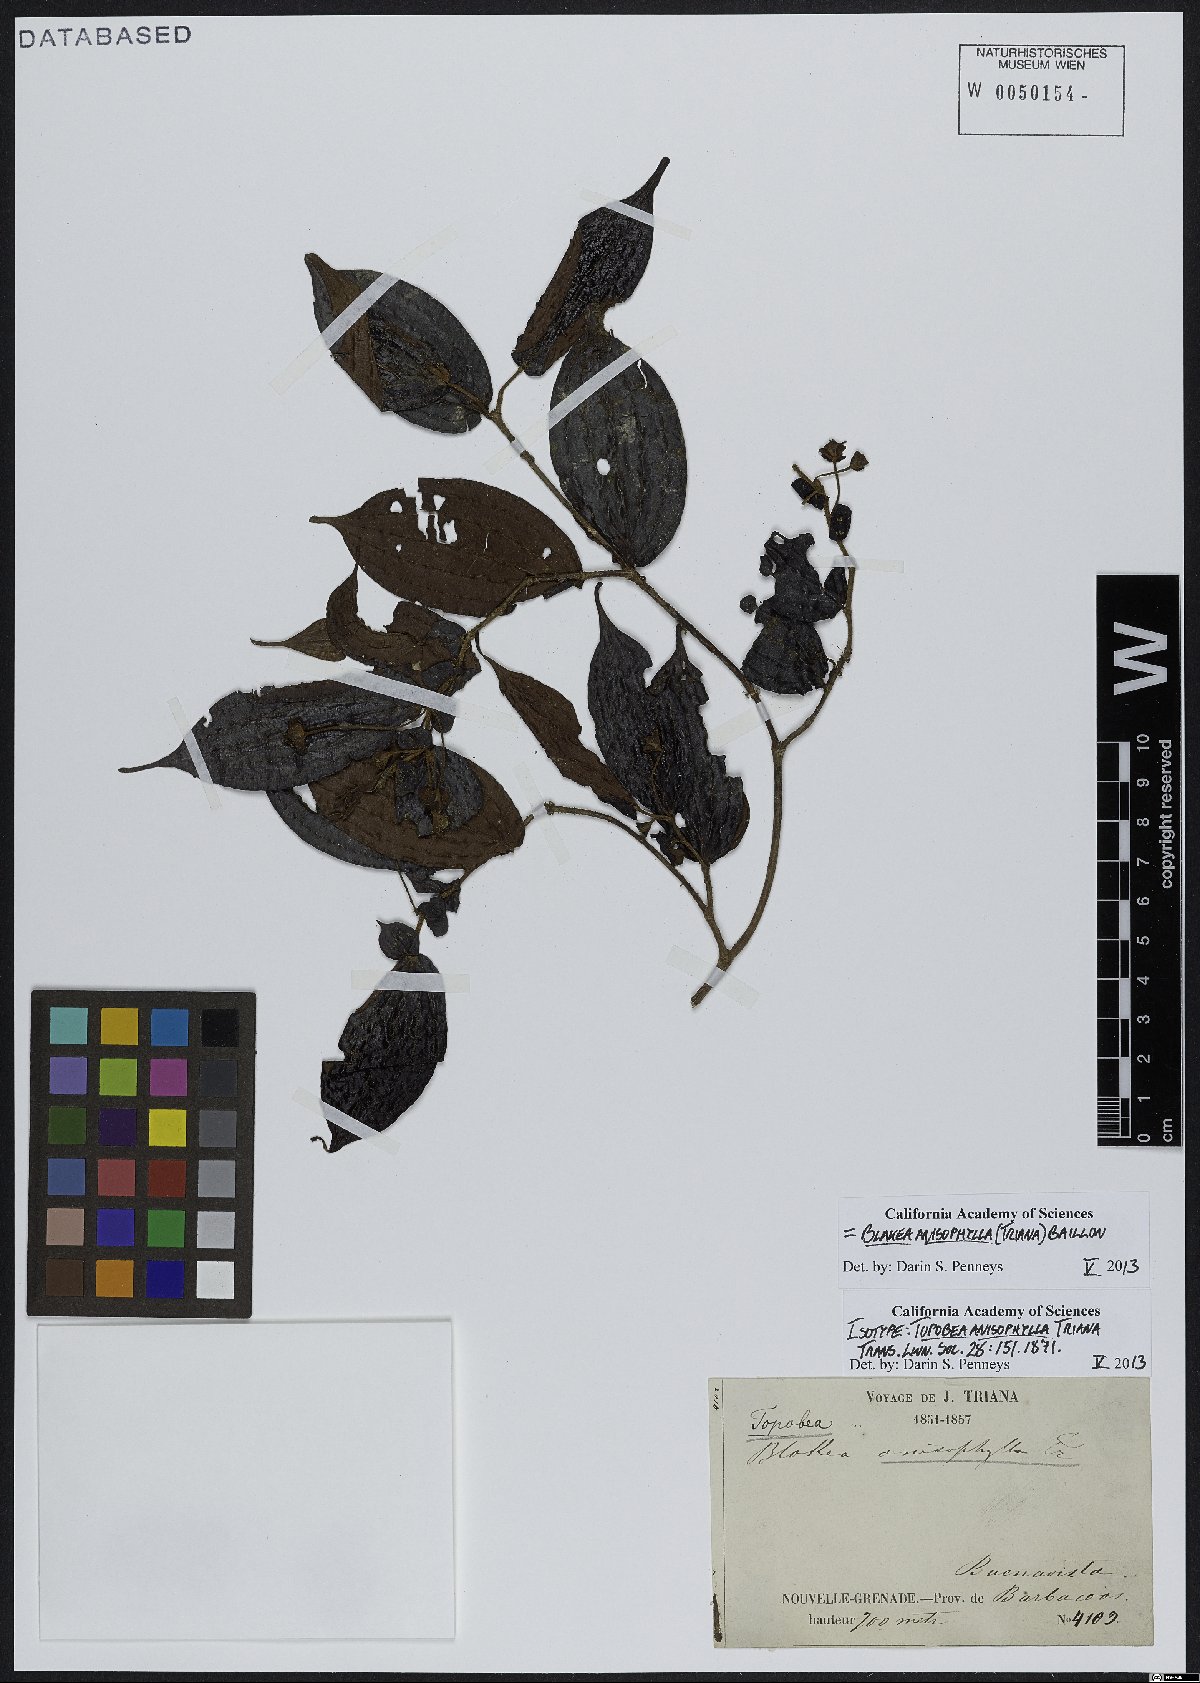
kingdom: Plantae
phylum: Tracheophyta
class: Magnoliopsida
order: Myrtales
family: Melastomataceae
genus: Blakea
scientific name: Blakea anisophylla
